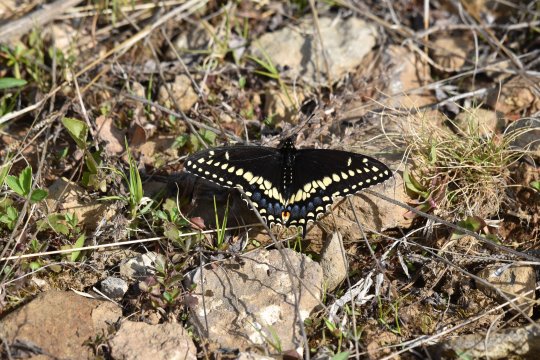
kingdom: Animalia
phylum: Arthropoda
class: Insecta
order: Lepidoptera
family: Papilionidae
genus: Papilio
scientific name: Papilio polyxenes
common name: Black Swallowtail
